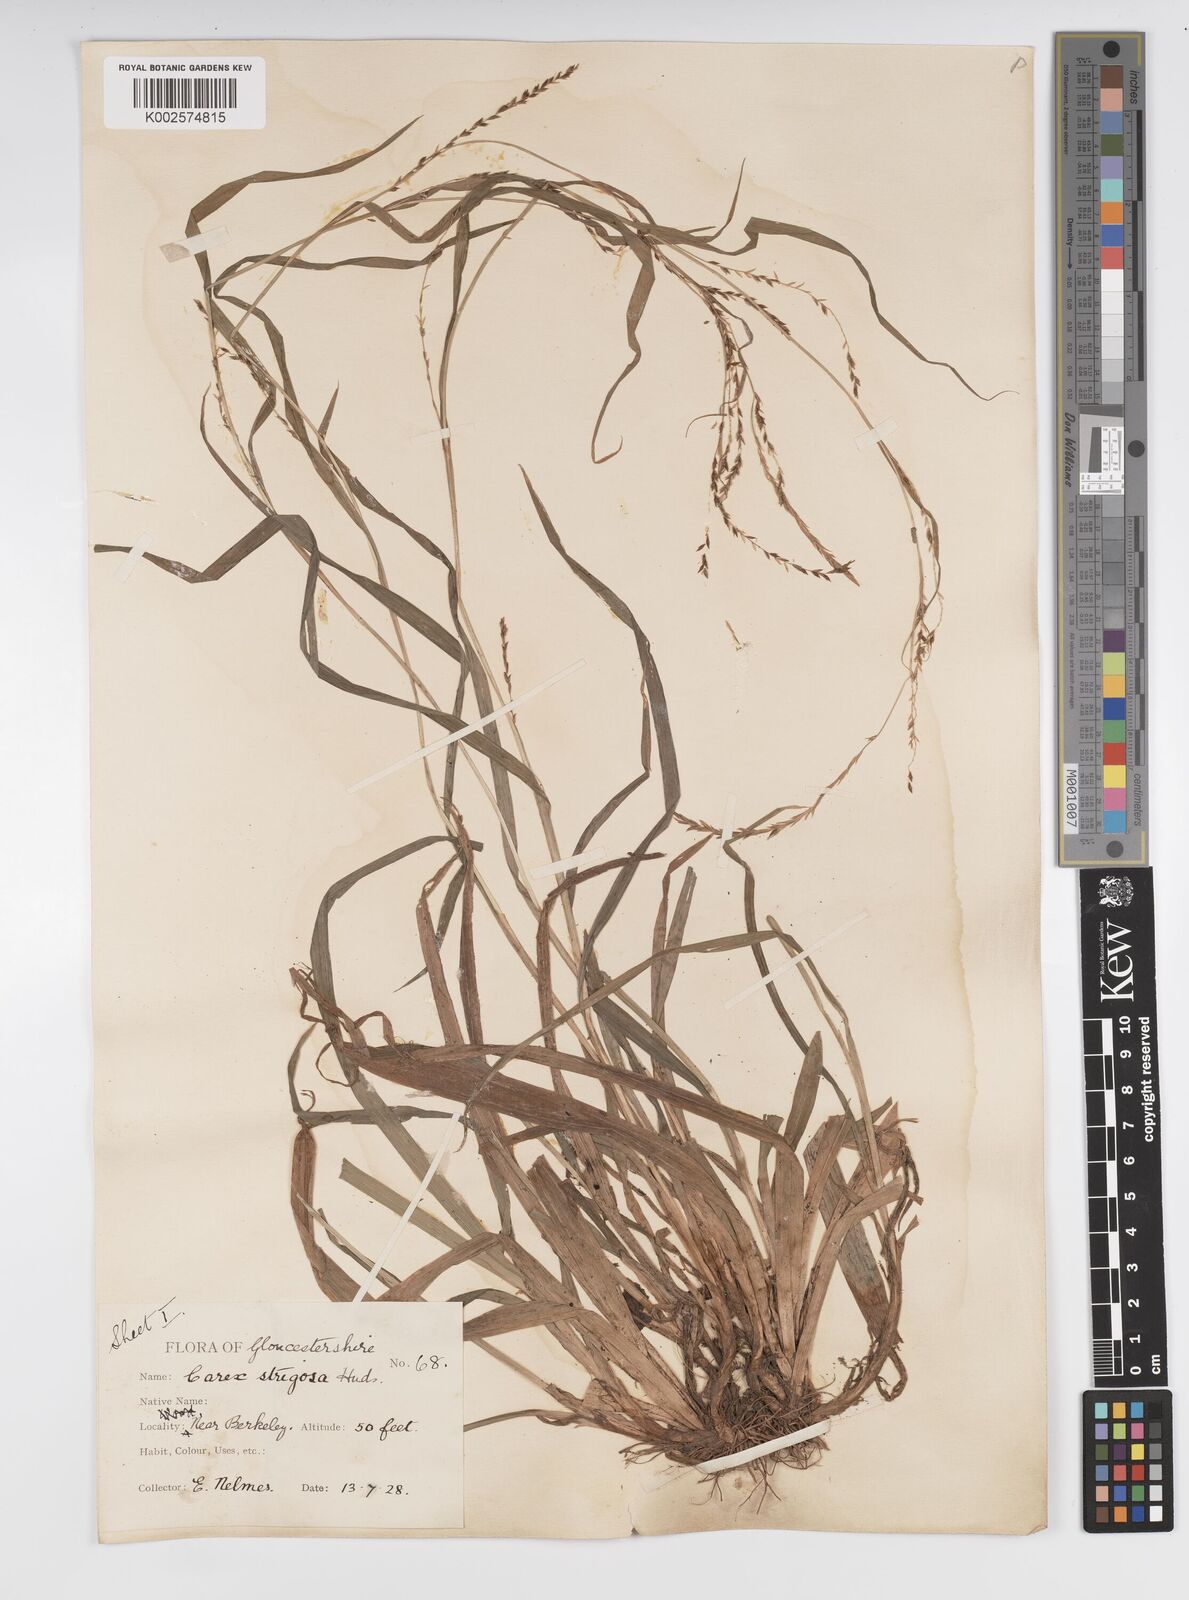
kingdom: Plantae
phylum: Tracheophyta
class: Liliopsida
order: Poales
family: Cyperaceae
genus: Carex
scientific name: Carex strigosa
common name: Thin-spiked wood-sedge
